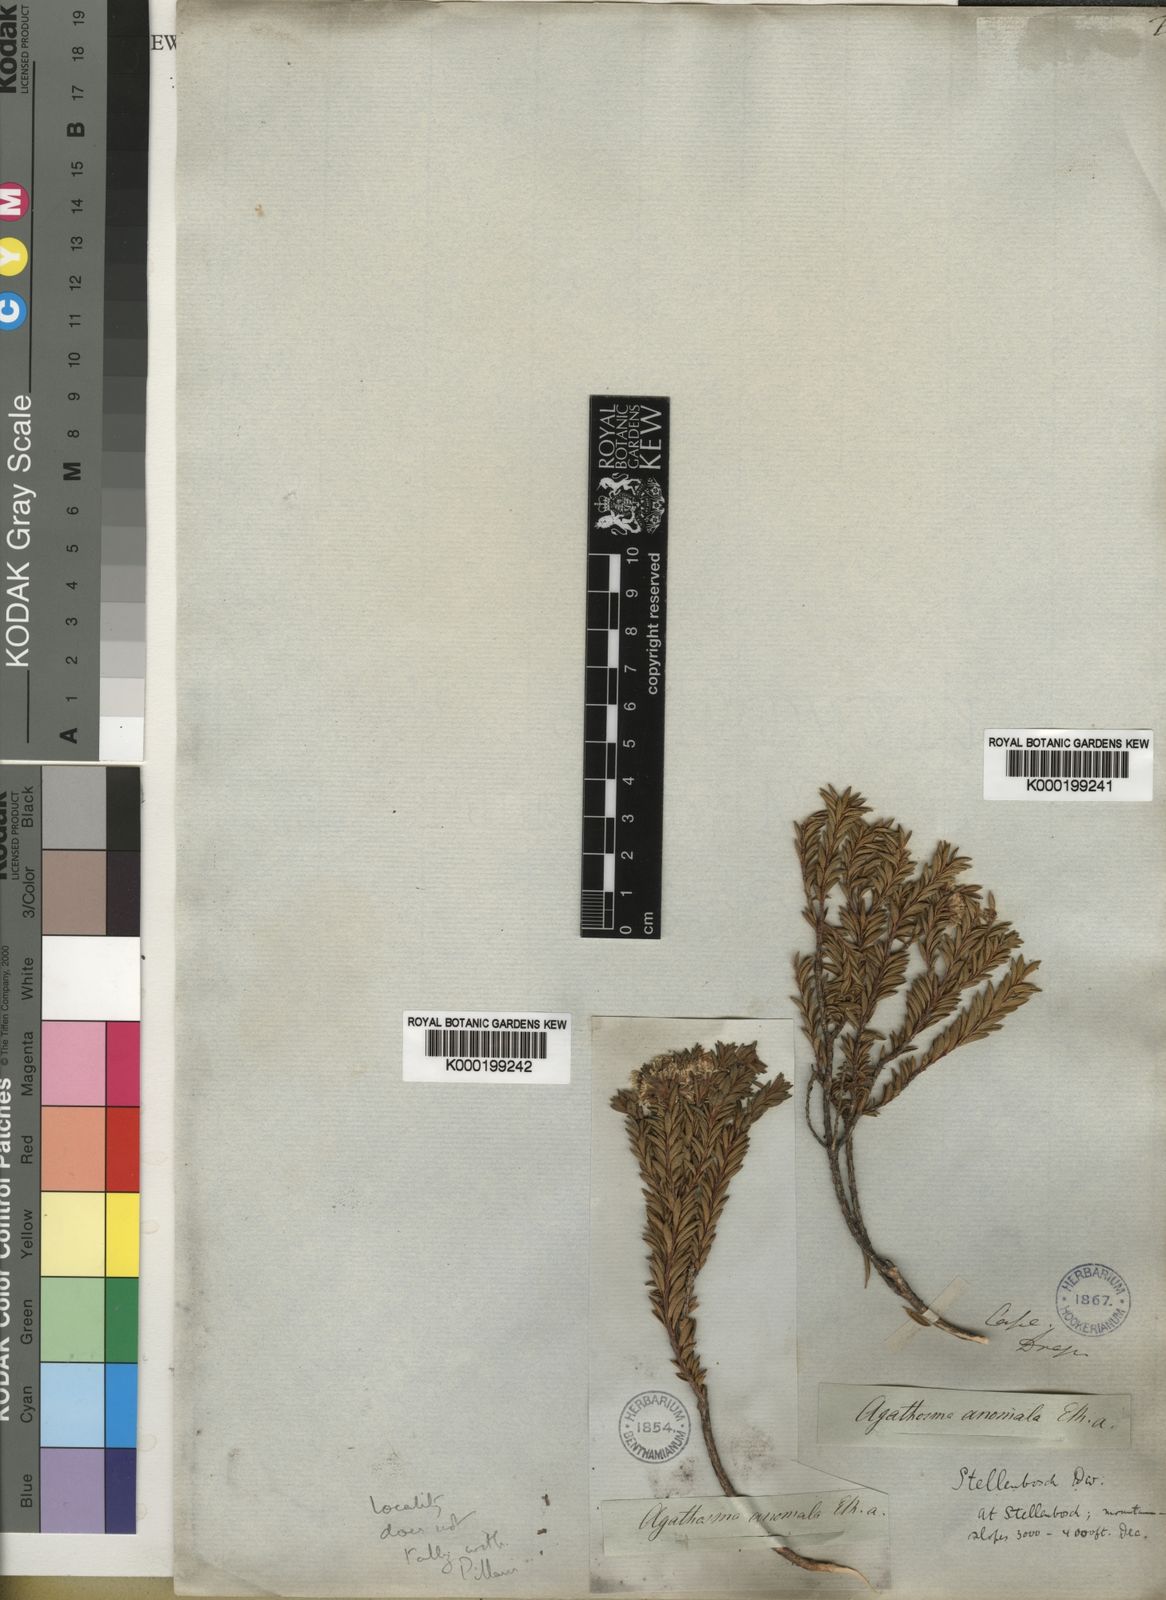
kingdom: Plantae
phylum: Tracheophyta
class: Magnoliopsida
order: Sapindales
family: Rutaceae
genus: Agathosma
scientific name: Agathosma anomala
